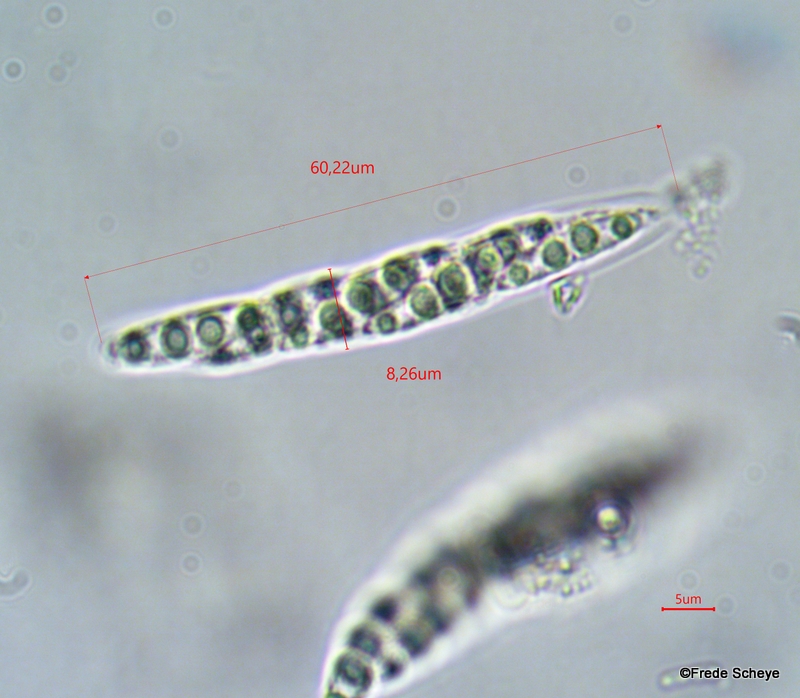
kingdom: Fungi
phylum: Ascomycota
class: Sordariomycetes
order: Diaporthales
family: Diaporthaceae
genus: Diaporthe
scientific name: Diaporthe strumella
